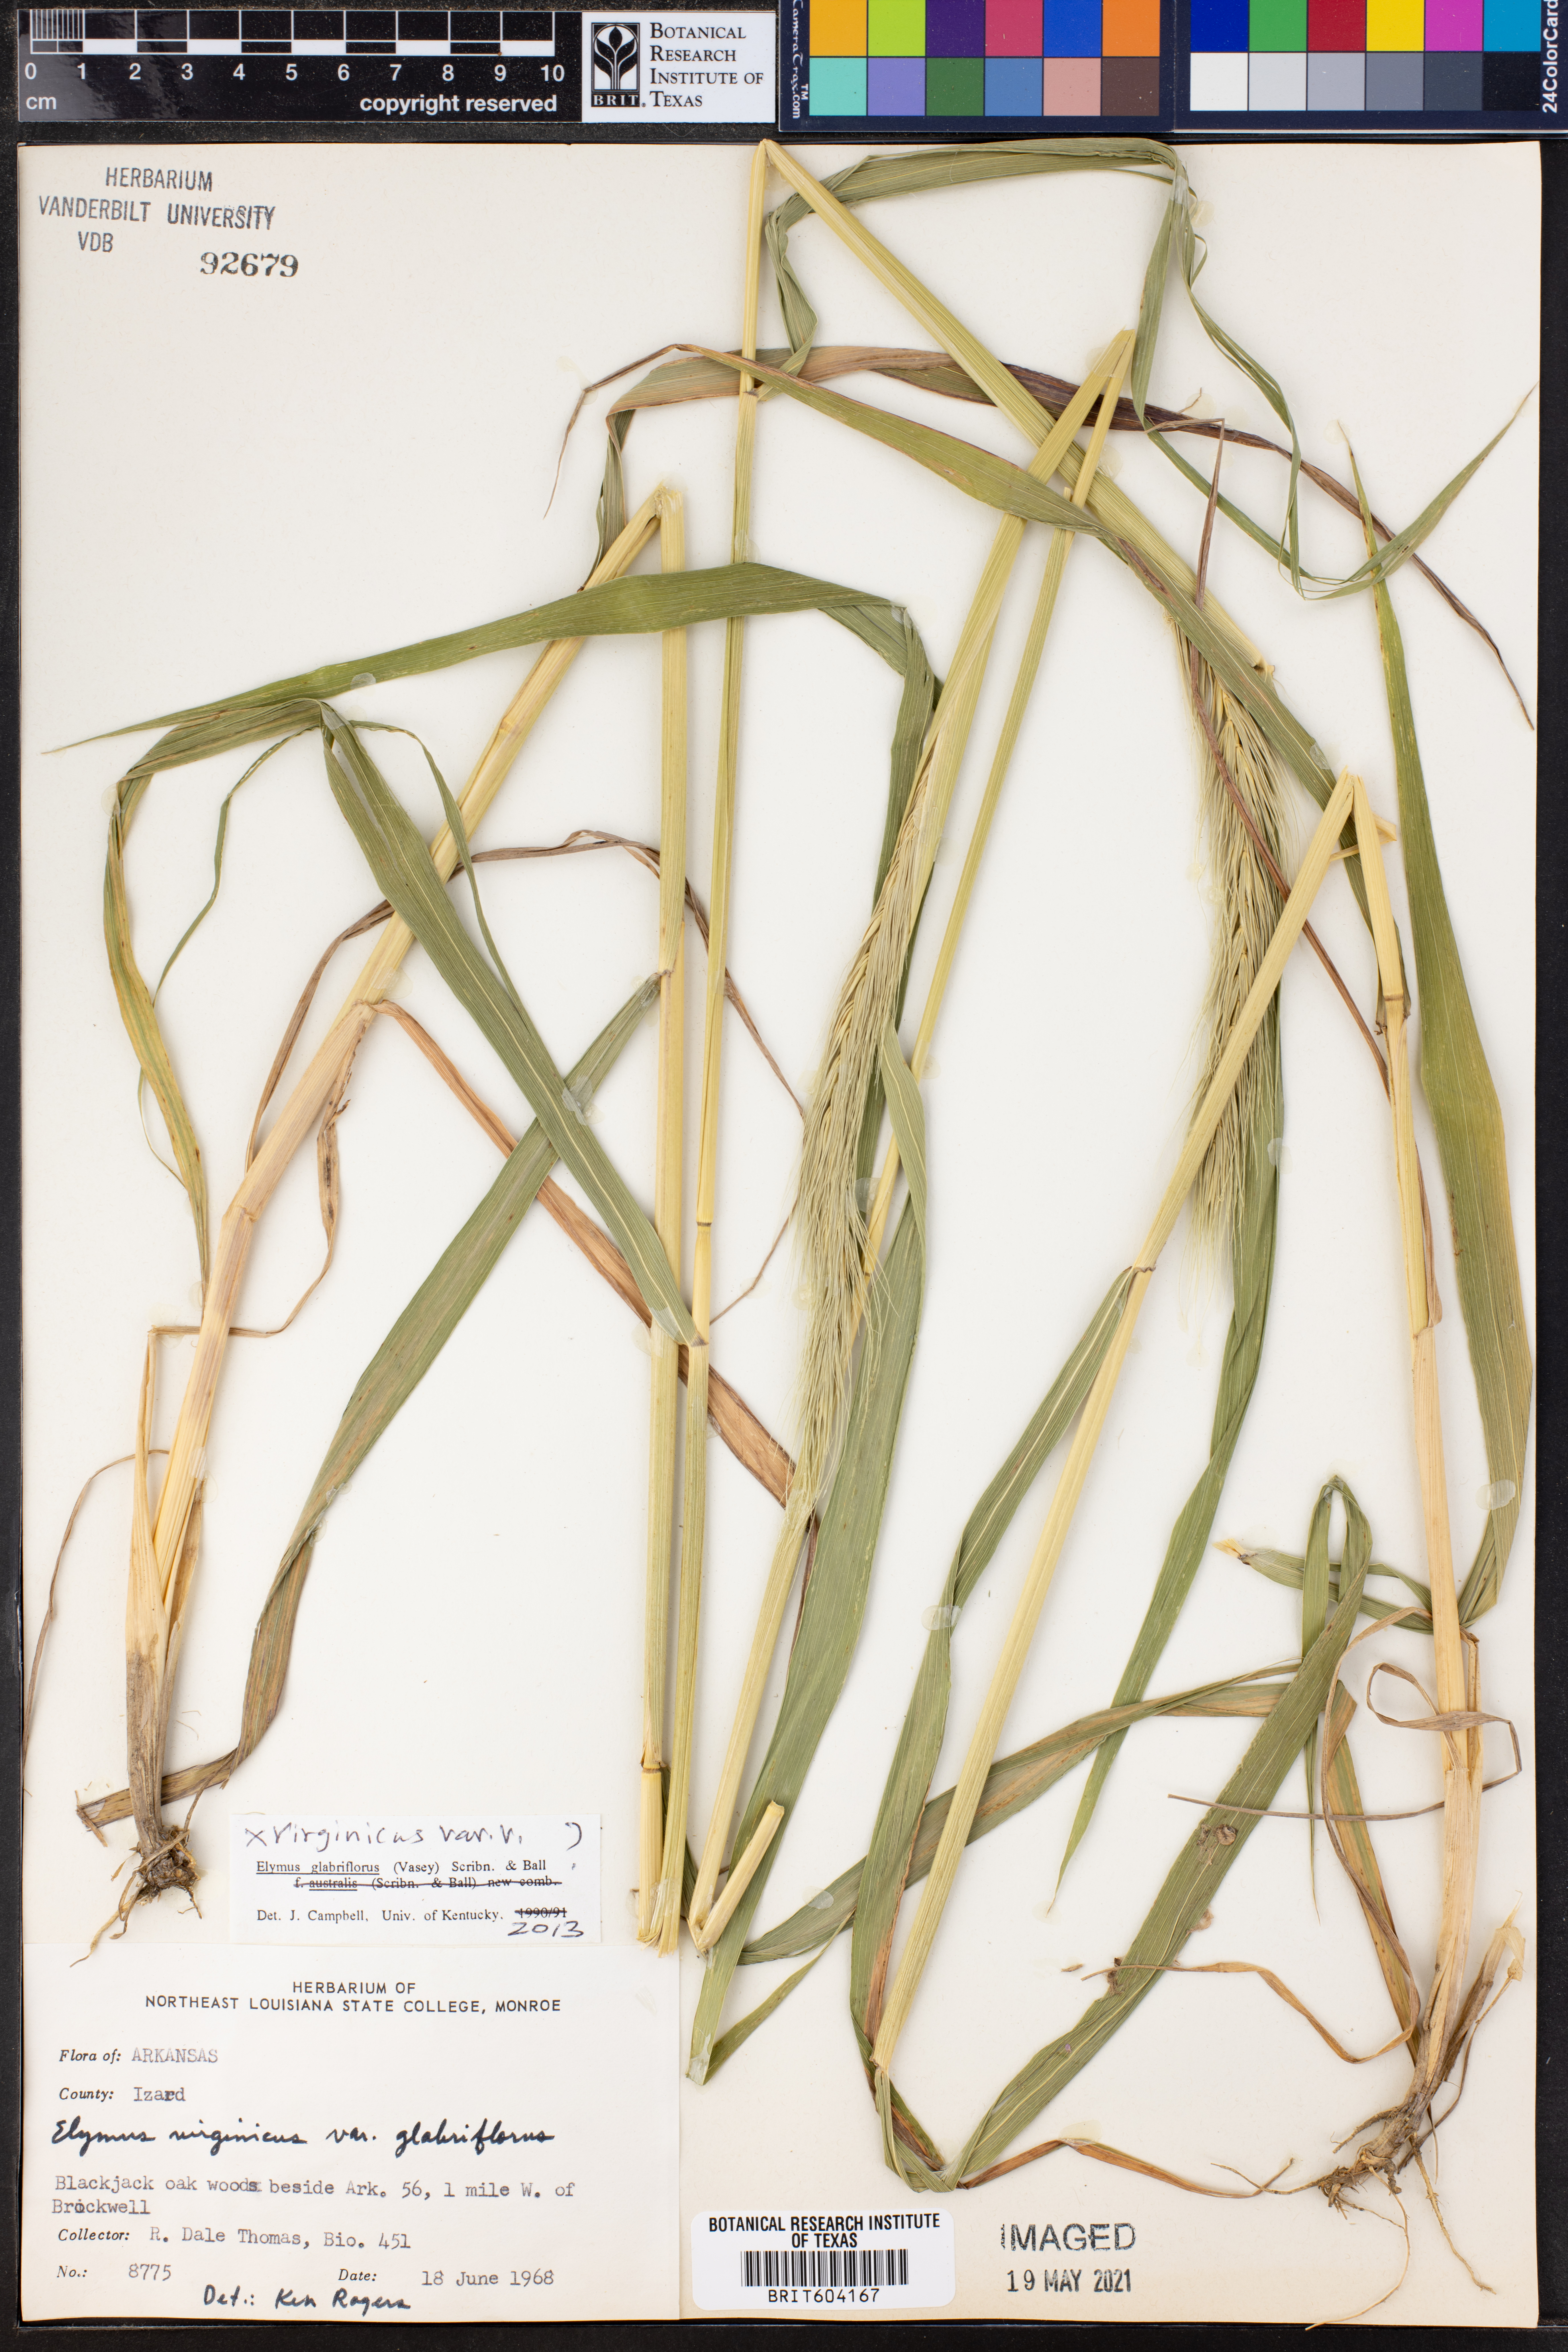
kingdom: Plantae
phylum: Tracheophyta
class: Liliopsida
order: Poales
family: Poaceae
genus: Elymus
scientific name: Elymus virginicus
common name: Common eastern wildrye
